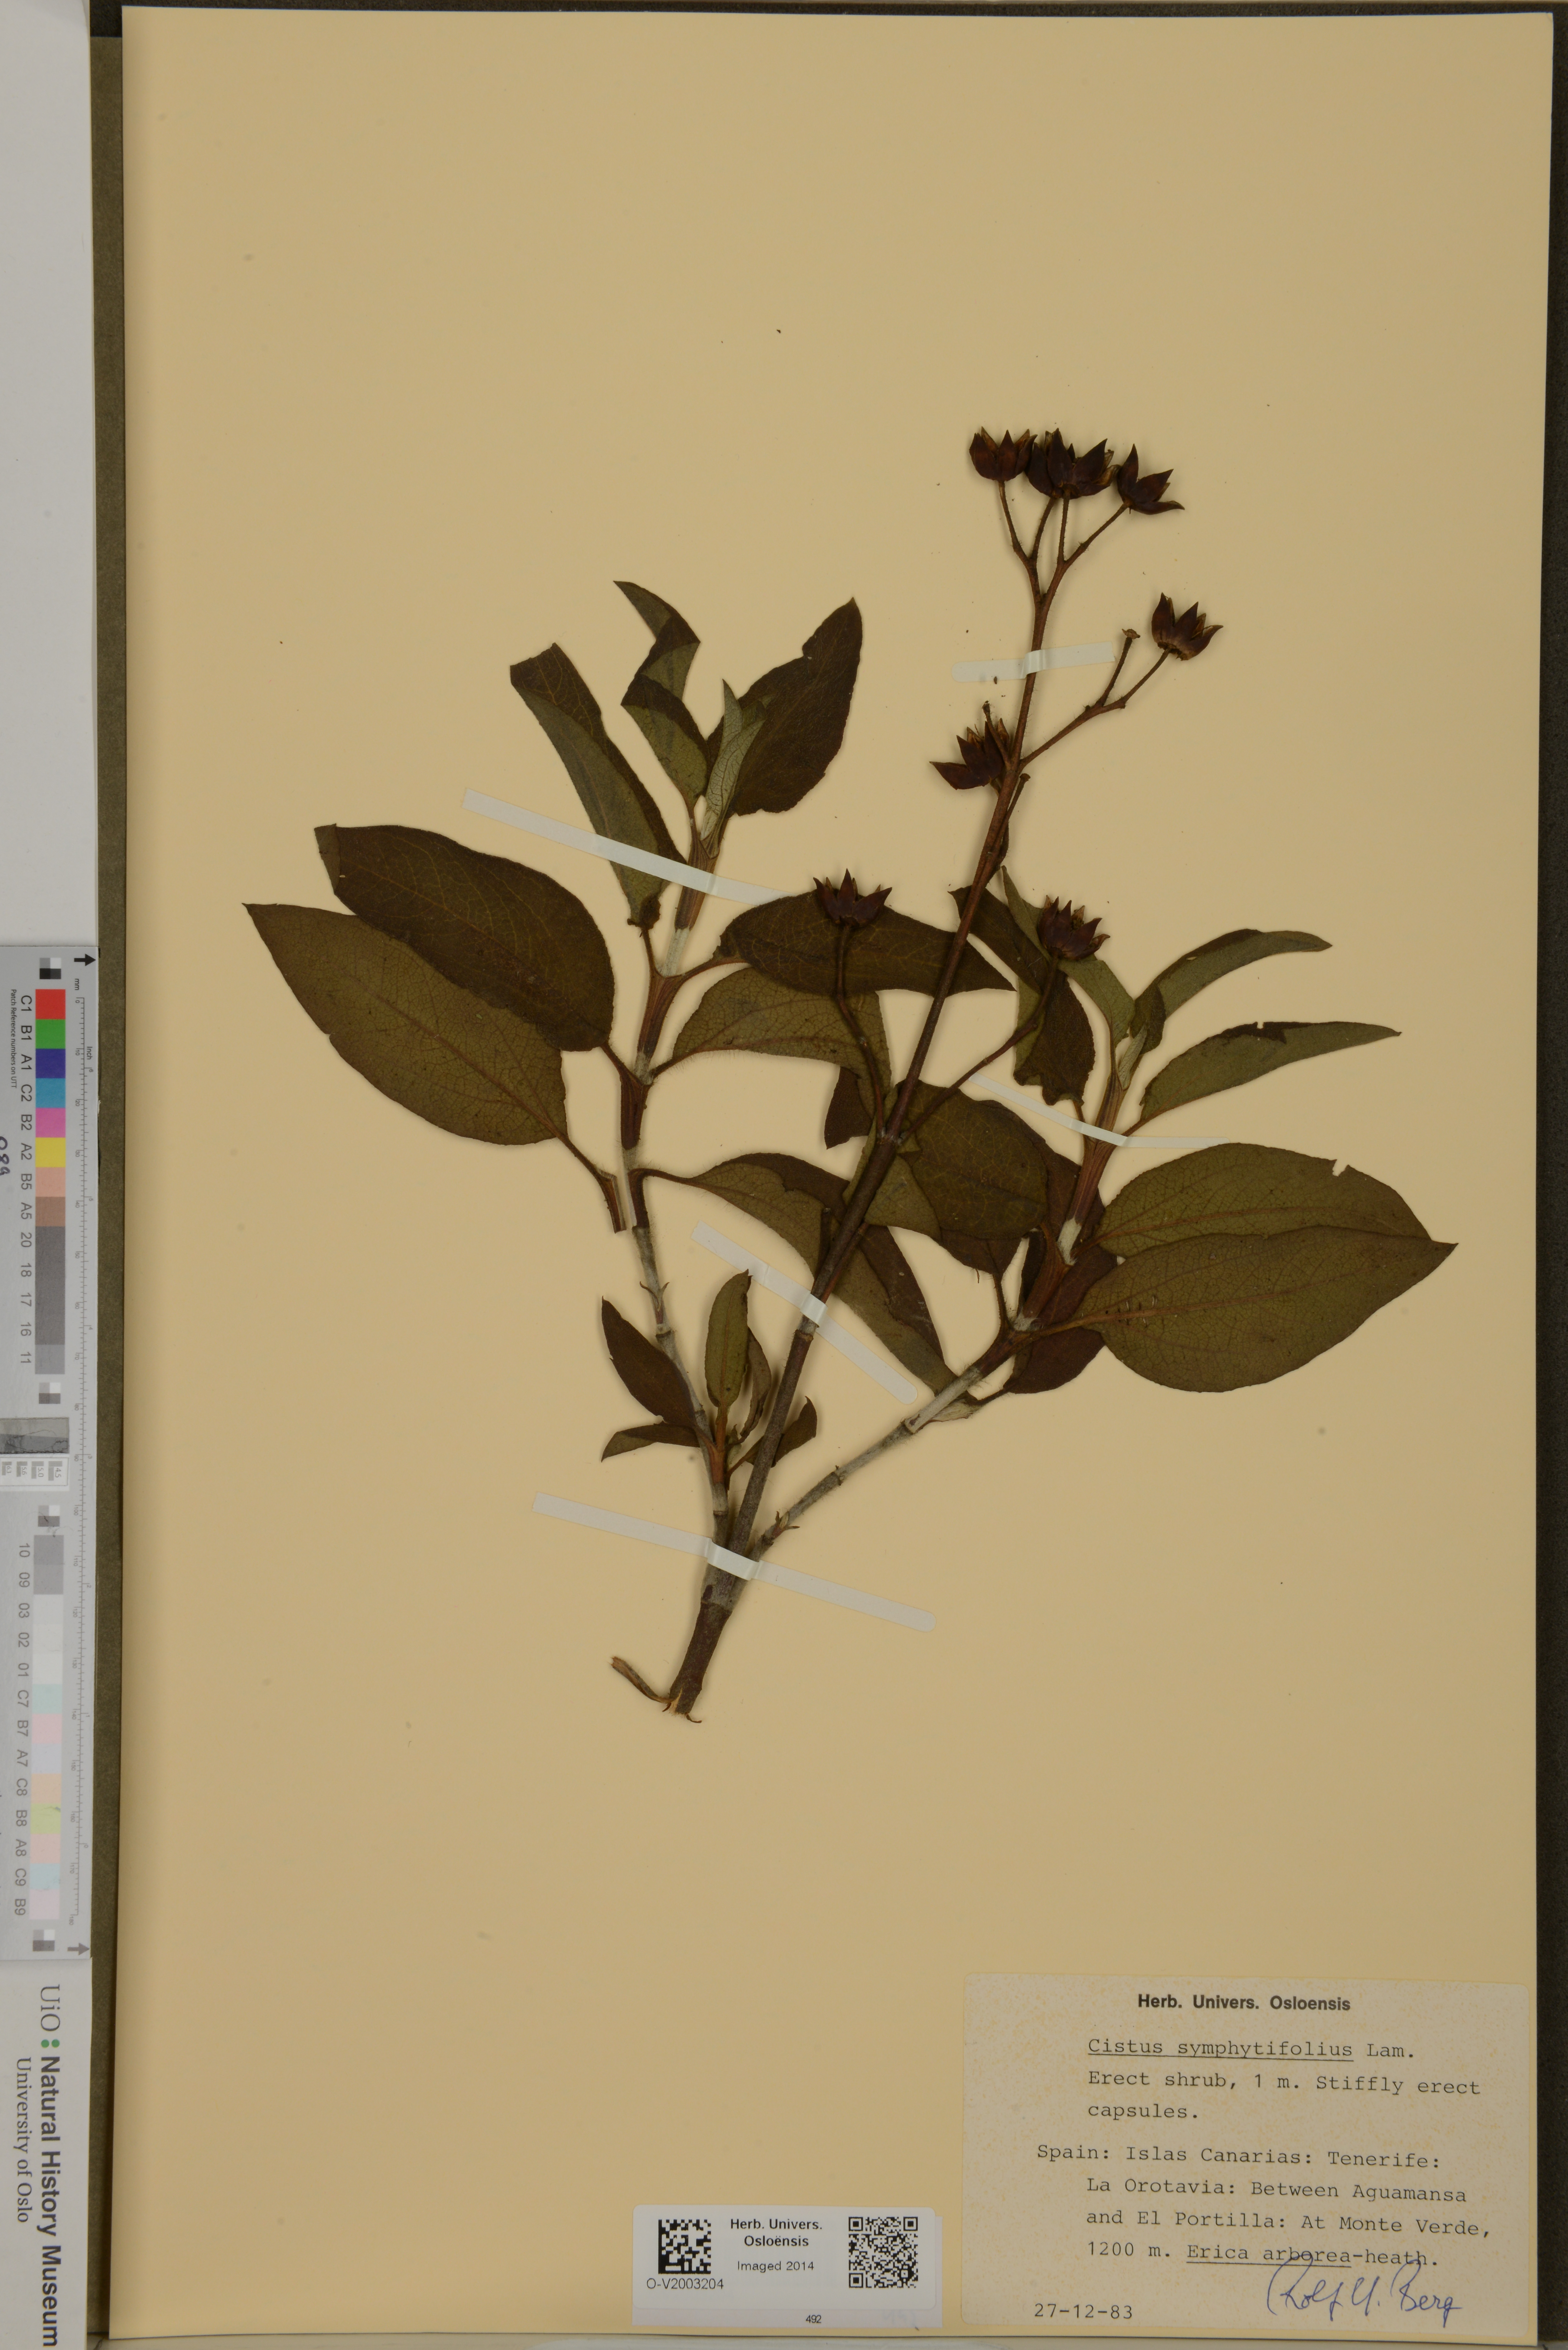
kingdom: Plantae
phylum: Tracheophyta
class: Magnoliopsida
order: Malvales
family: Cistaceae
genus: Cistus
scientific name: Cistus symphytifolius
